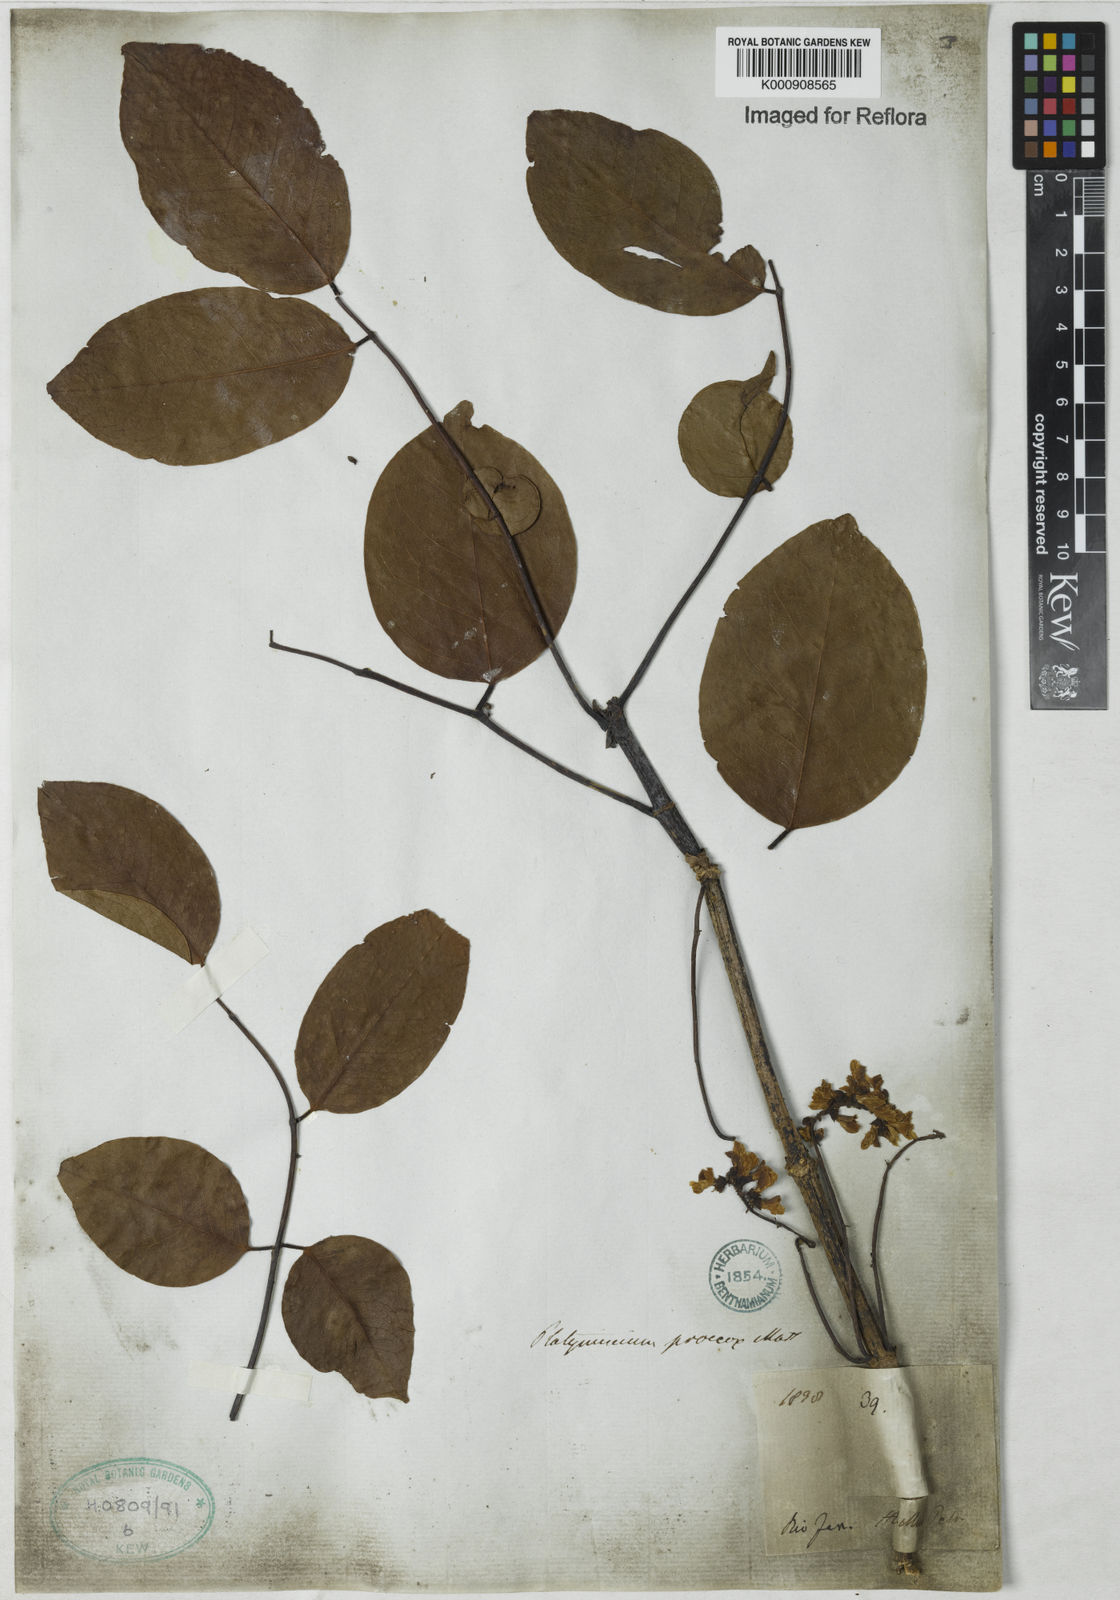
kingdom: Plantae
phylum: Tracheophyta
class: Magnoliopsida
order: Fabales
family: Fabaceae
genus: Platymiscium
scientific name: Platymiscium
